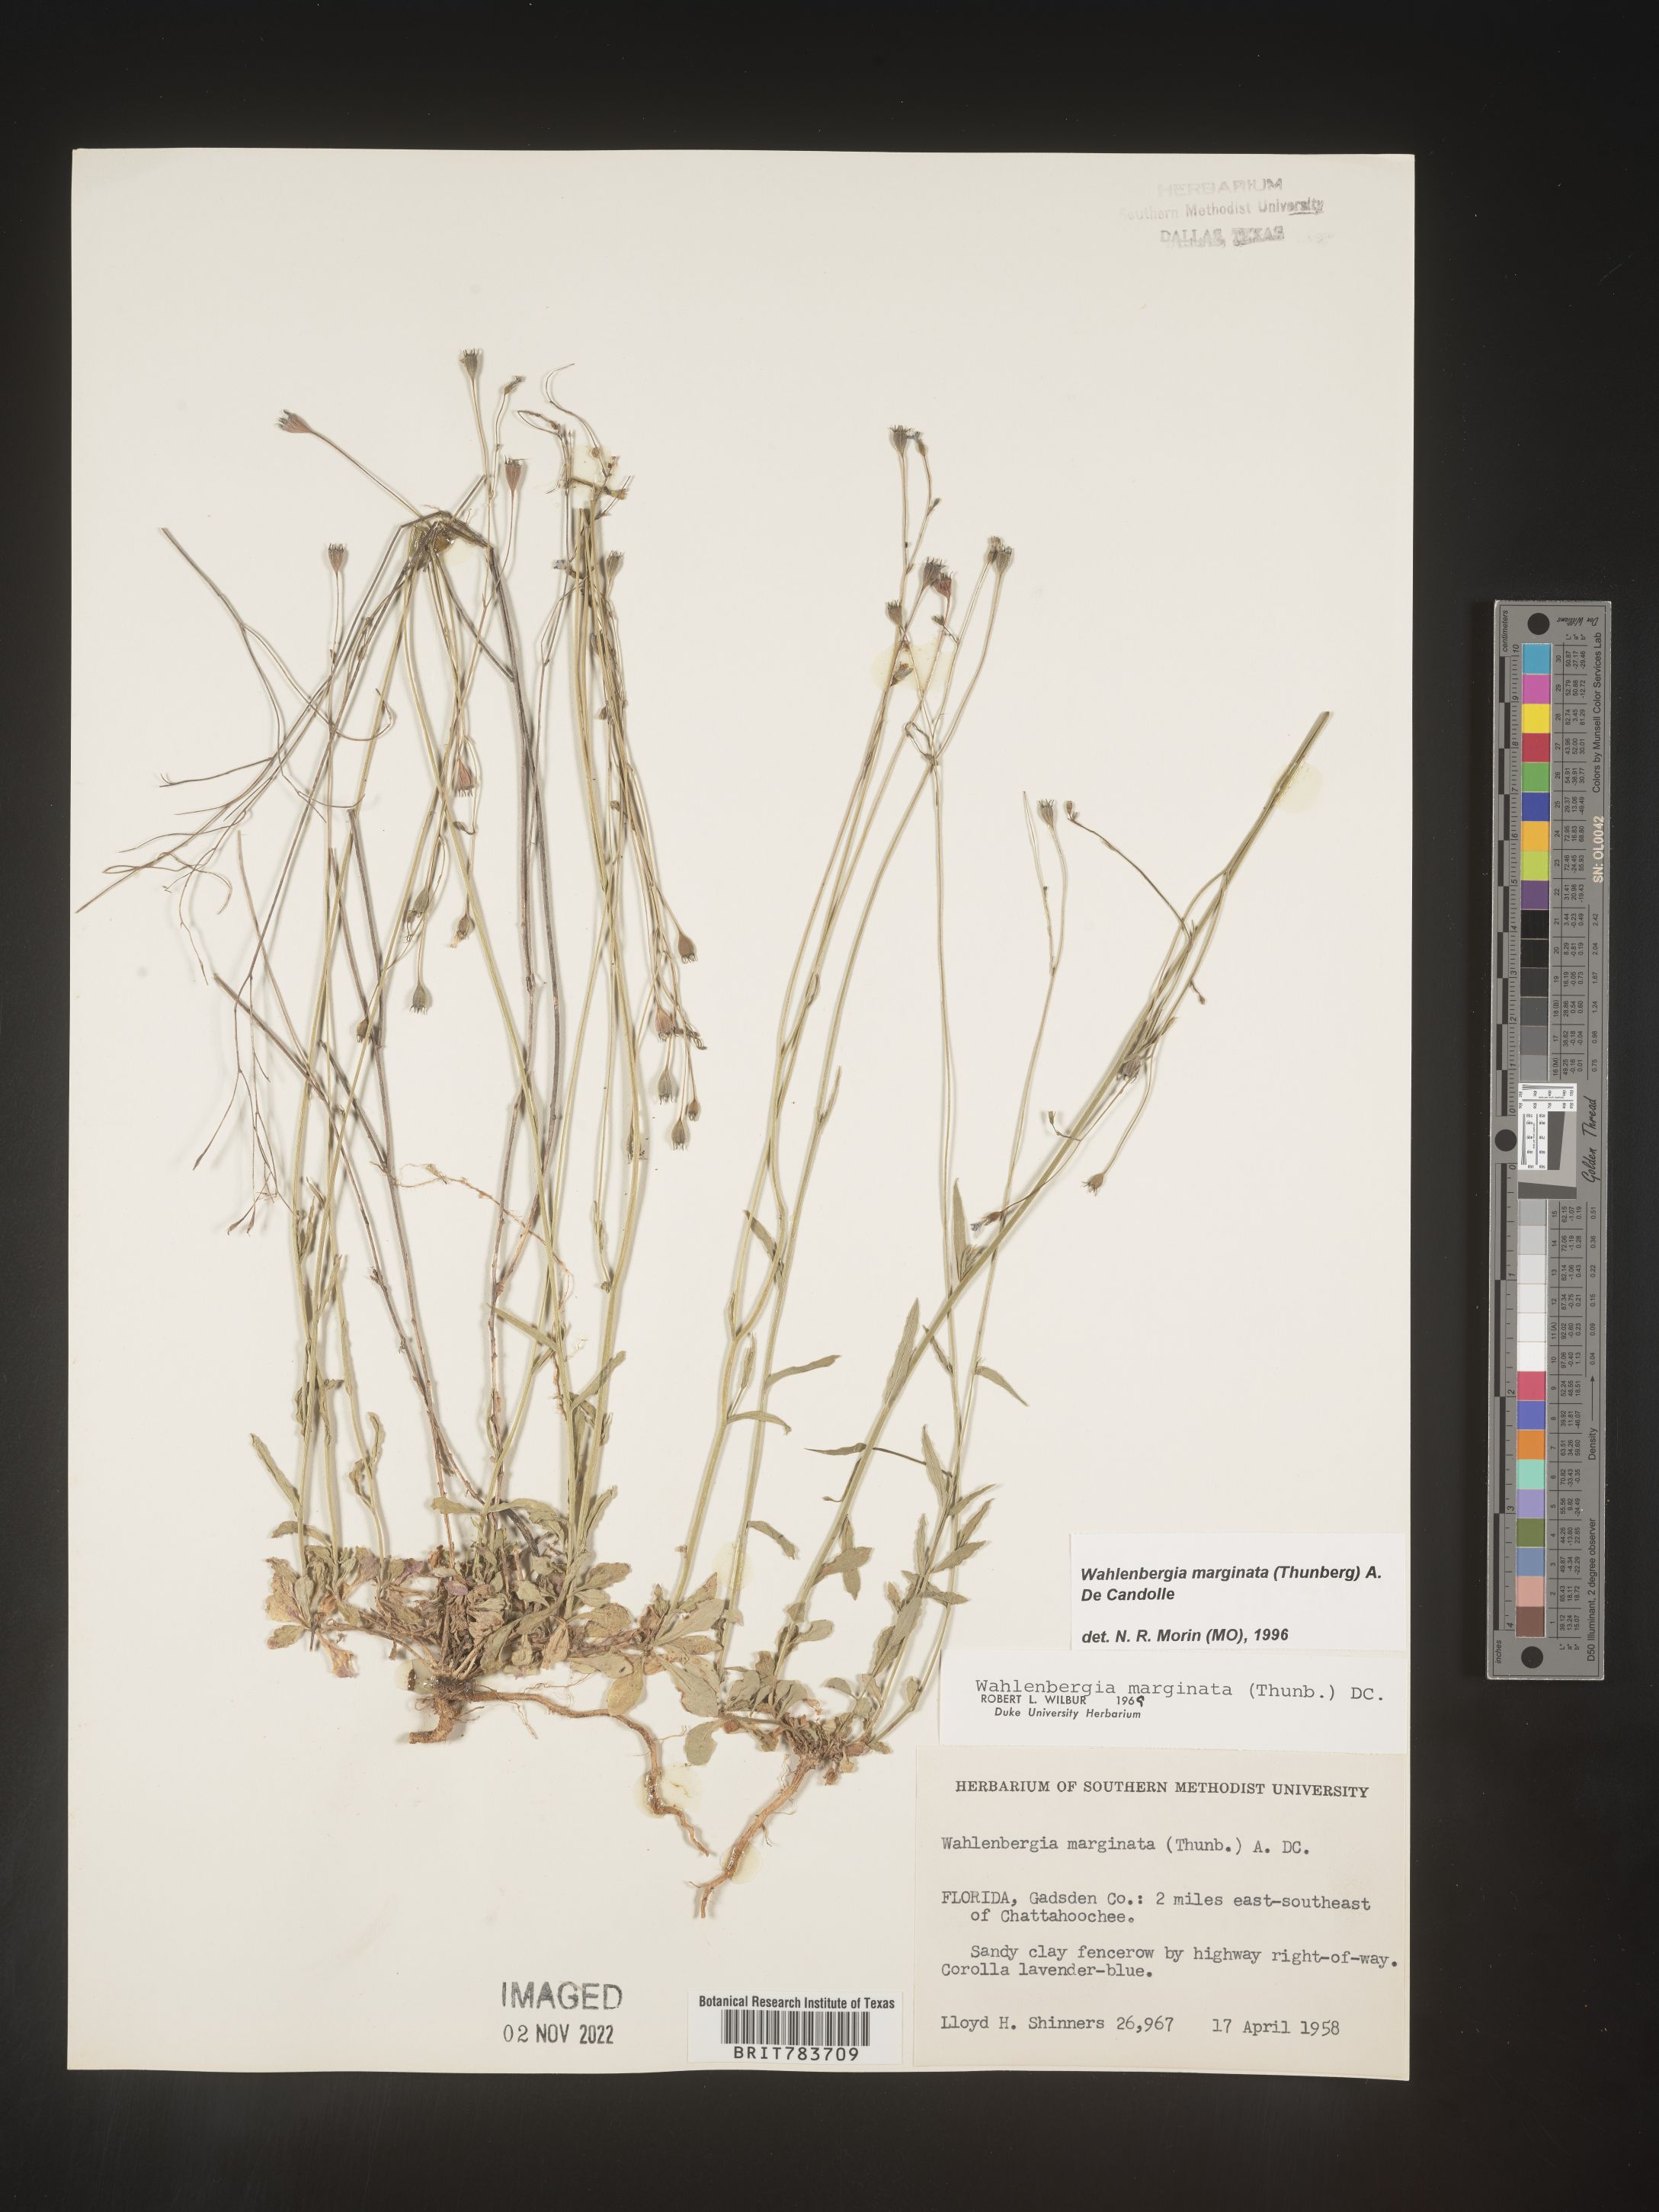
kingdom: Plantae
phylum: Tracheophyta
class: Magnoliopsida
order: Asterales
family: Campanulaceae
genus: Wahlenbergia
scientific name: Wahlenbergia marginata
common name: Southern rockbell
